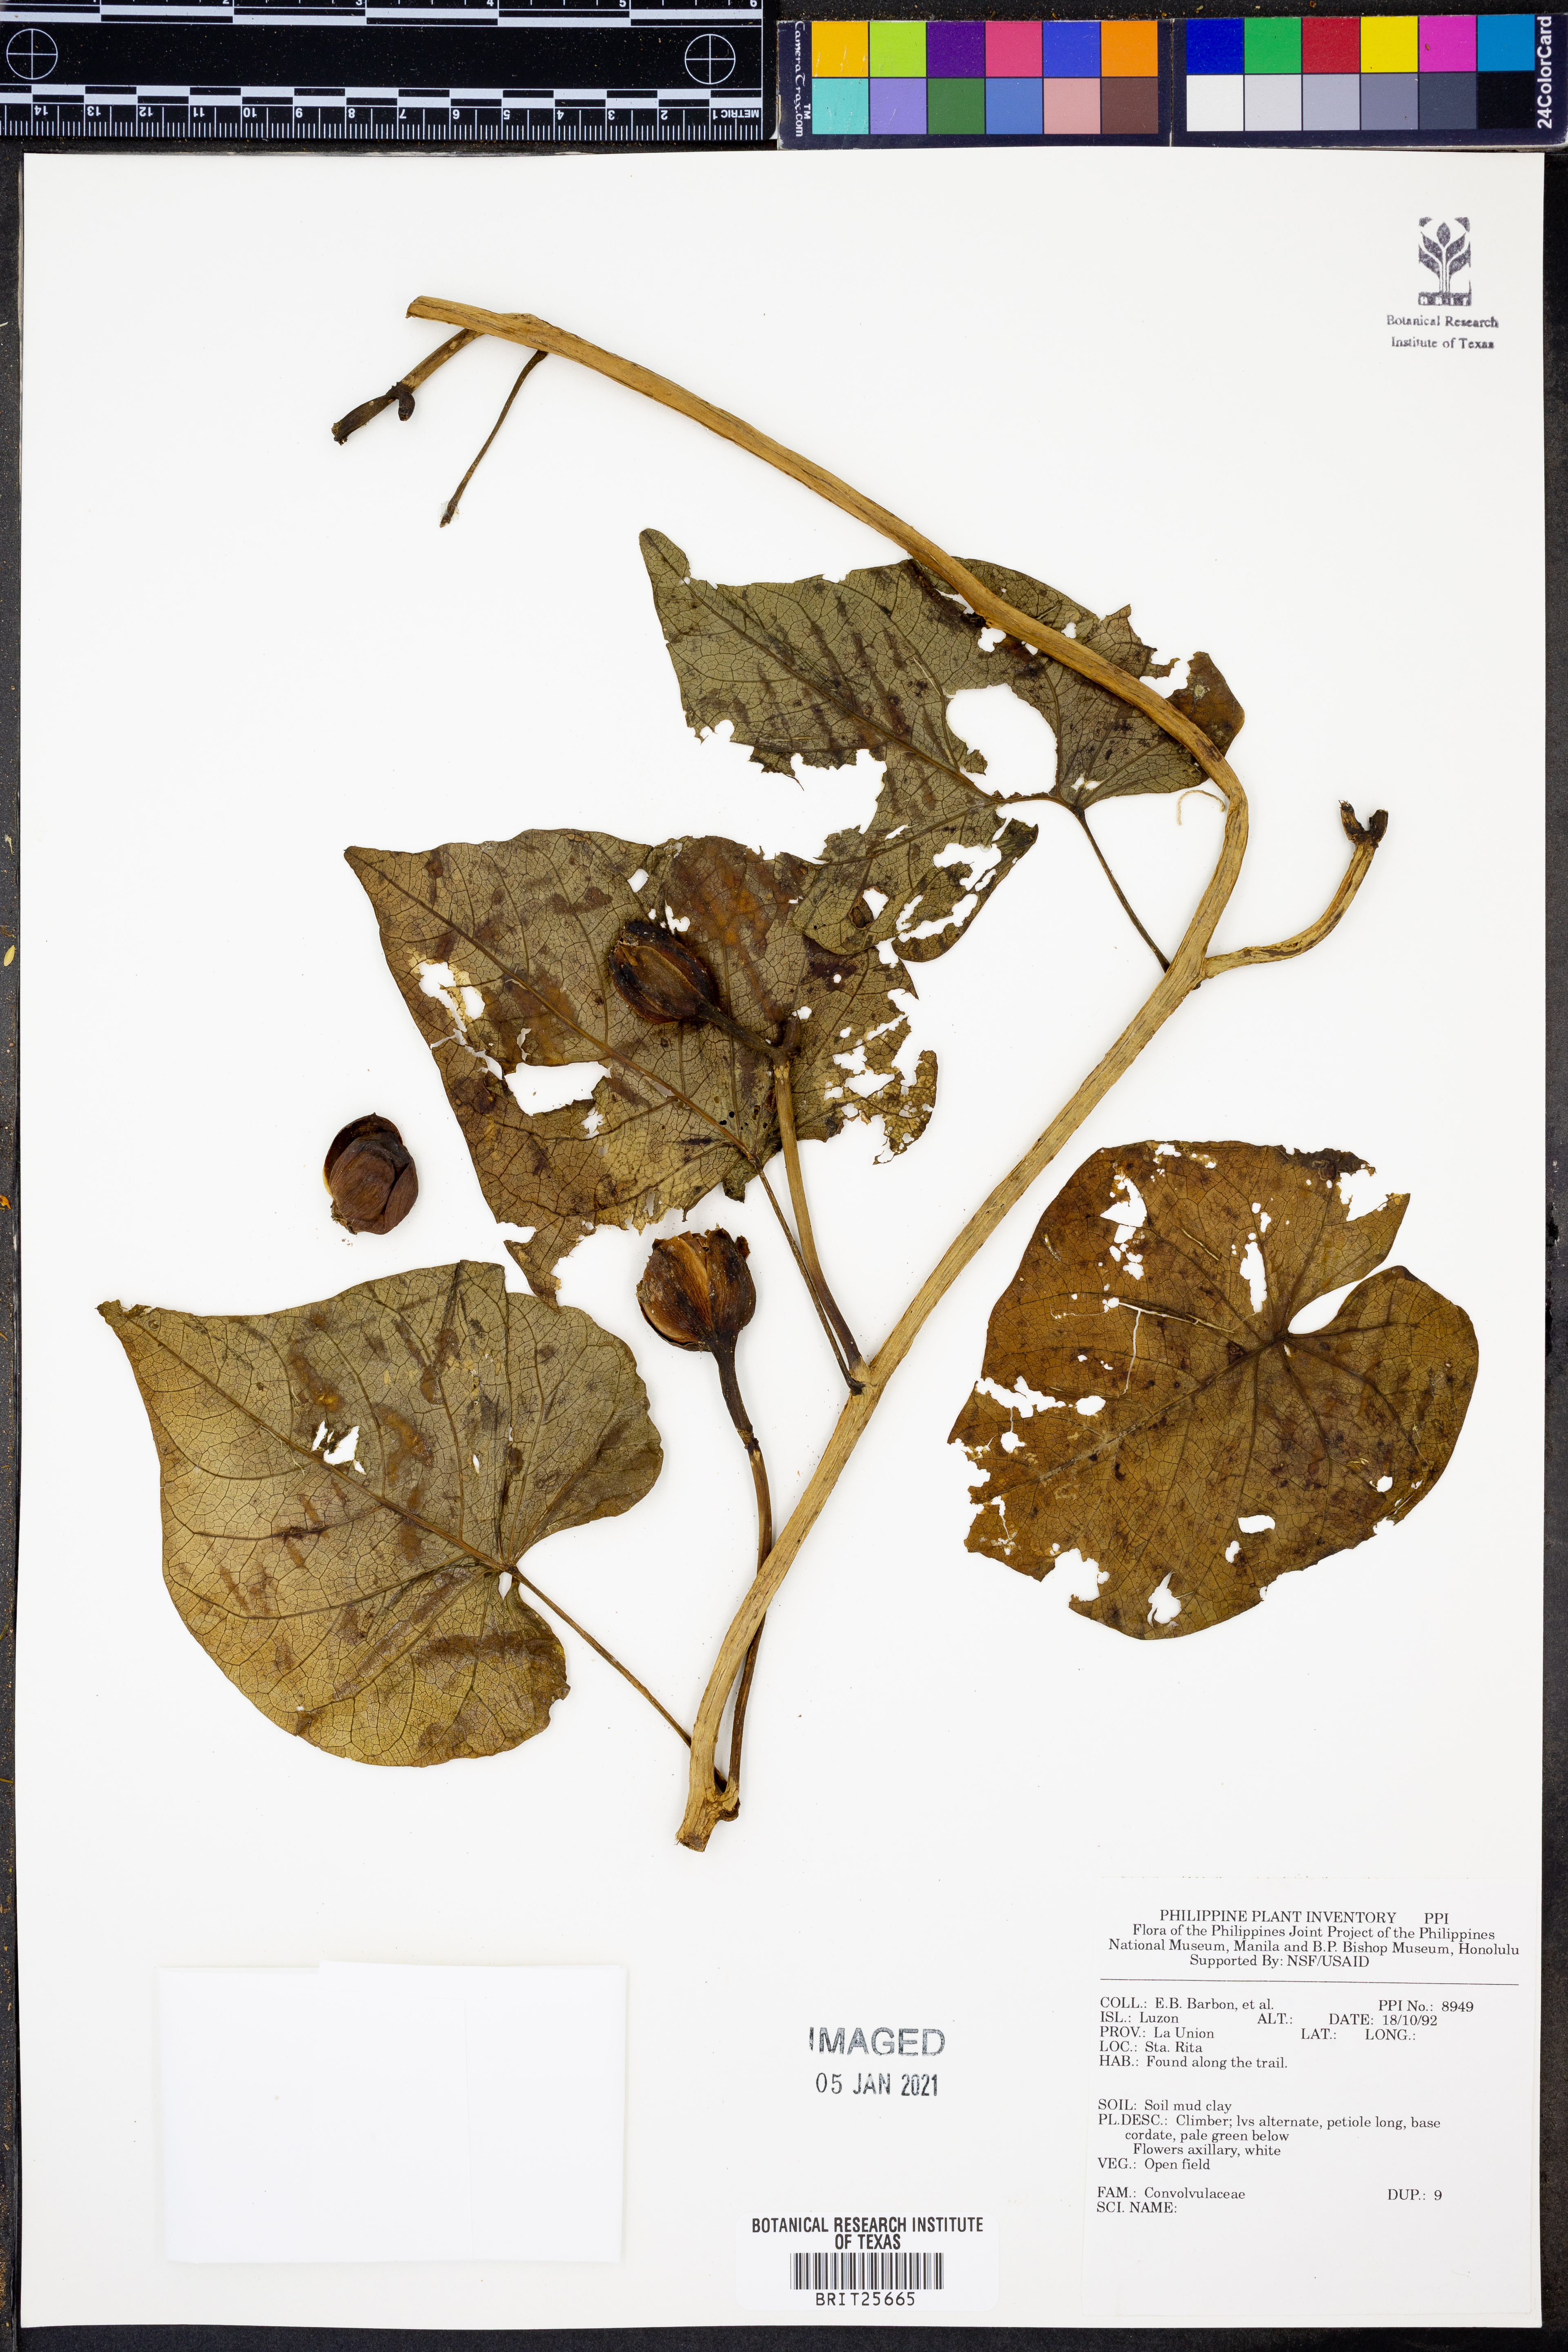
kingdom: Plantae
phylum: Tracheophyta
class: Magnoliopsida
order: Solanales
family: Convolvulaceae
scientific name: Convolvulaceae
